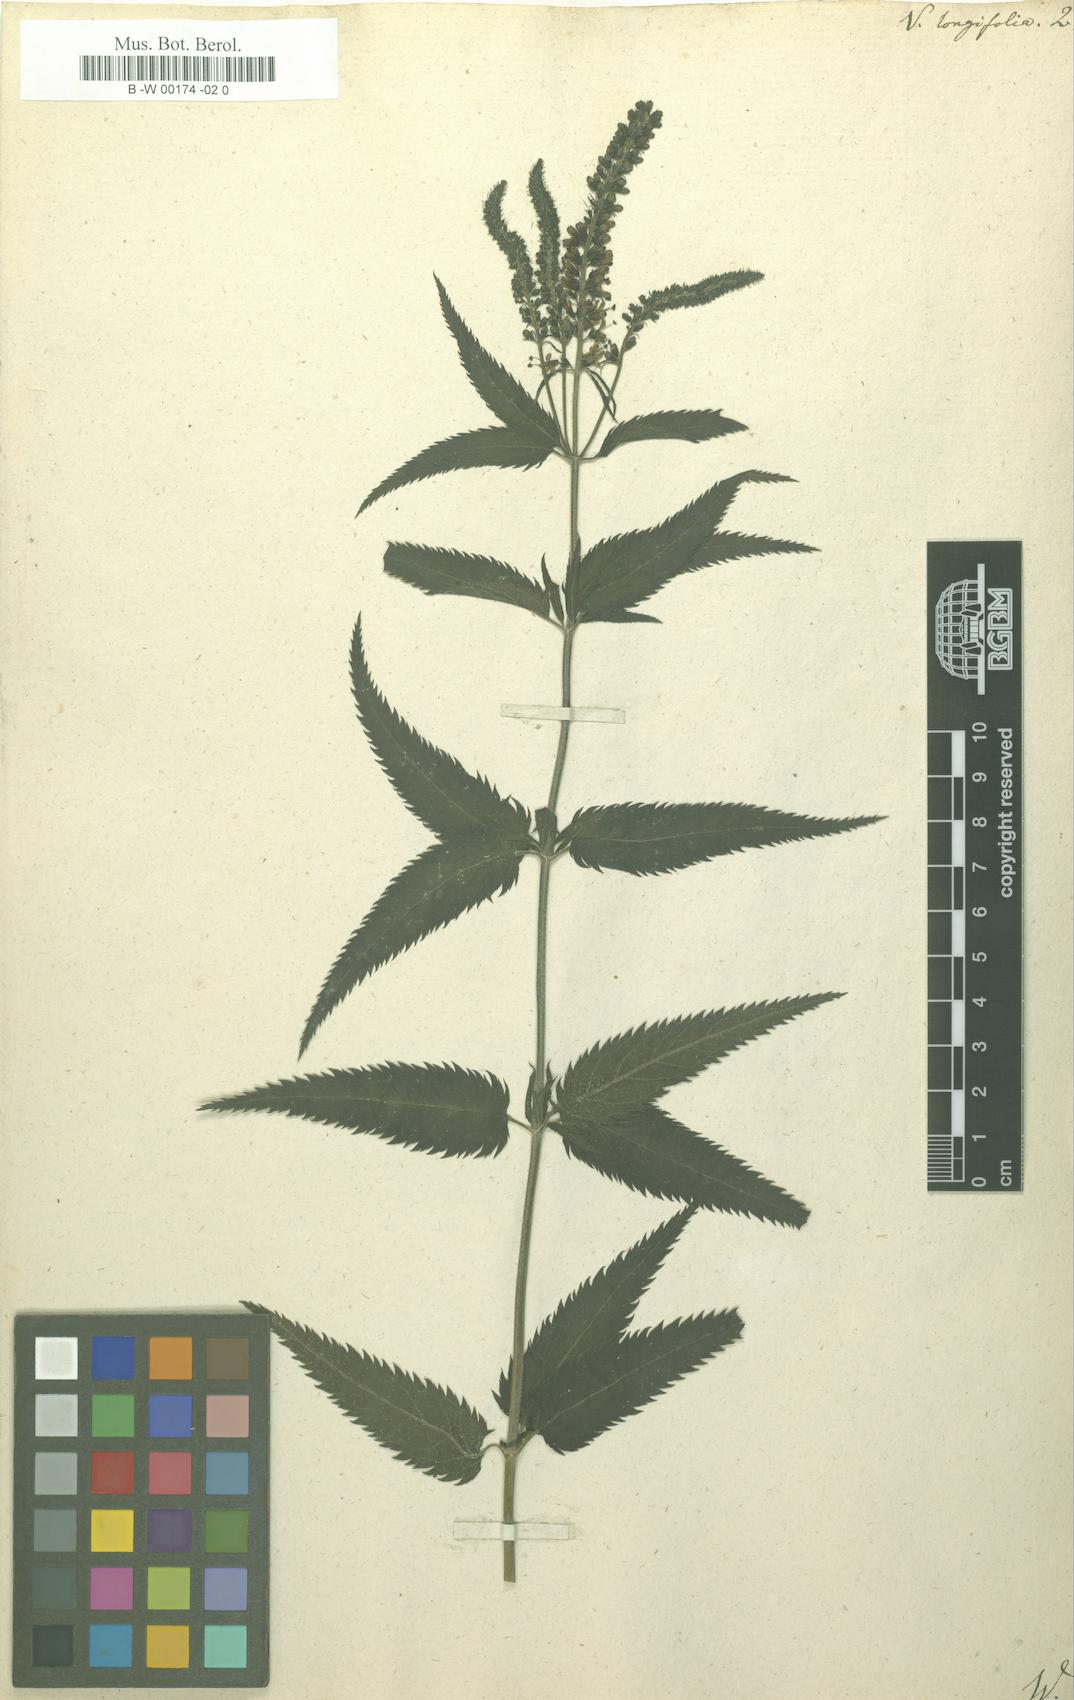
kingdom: Plantae
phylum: Tracheophyta
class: Magnoliopsida
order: Lamiales
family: Plantaginaceae
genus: Veronica
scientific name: Veronica longifolia
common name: Garden speedwell
